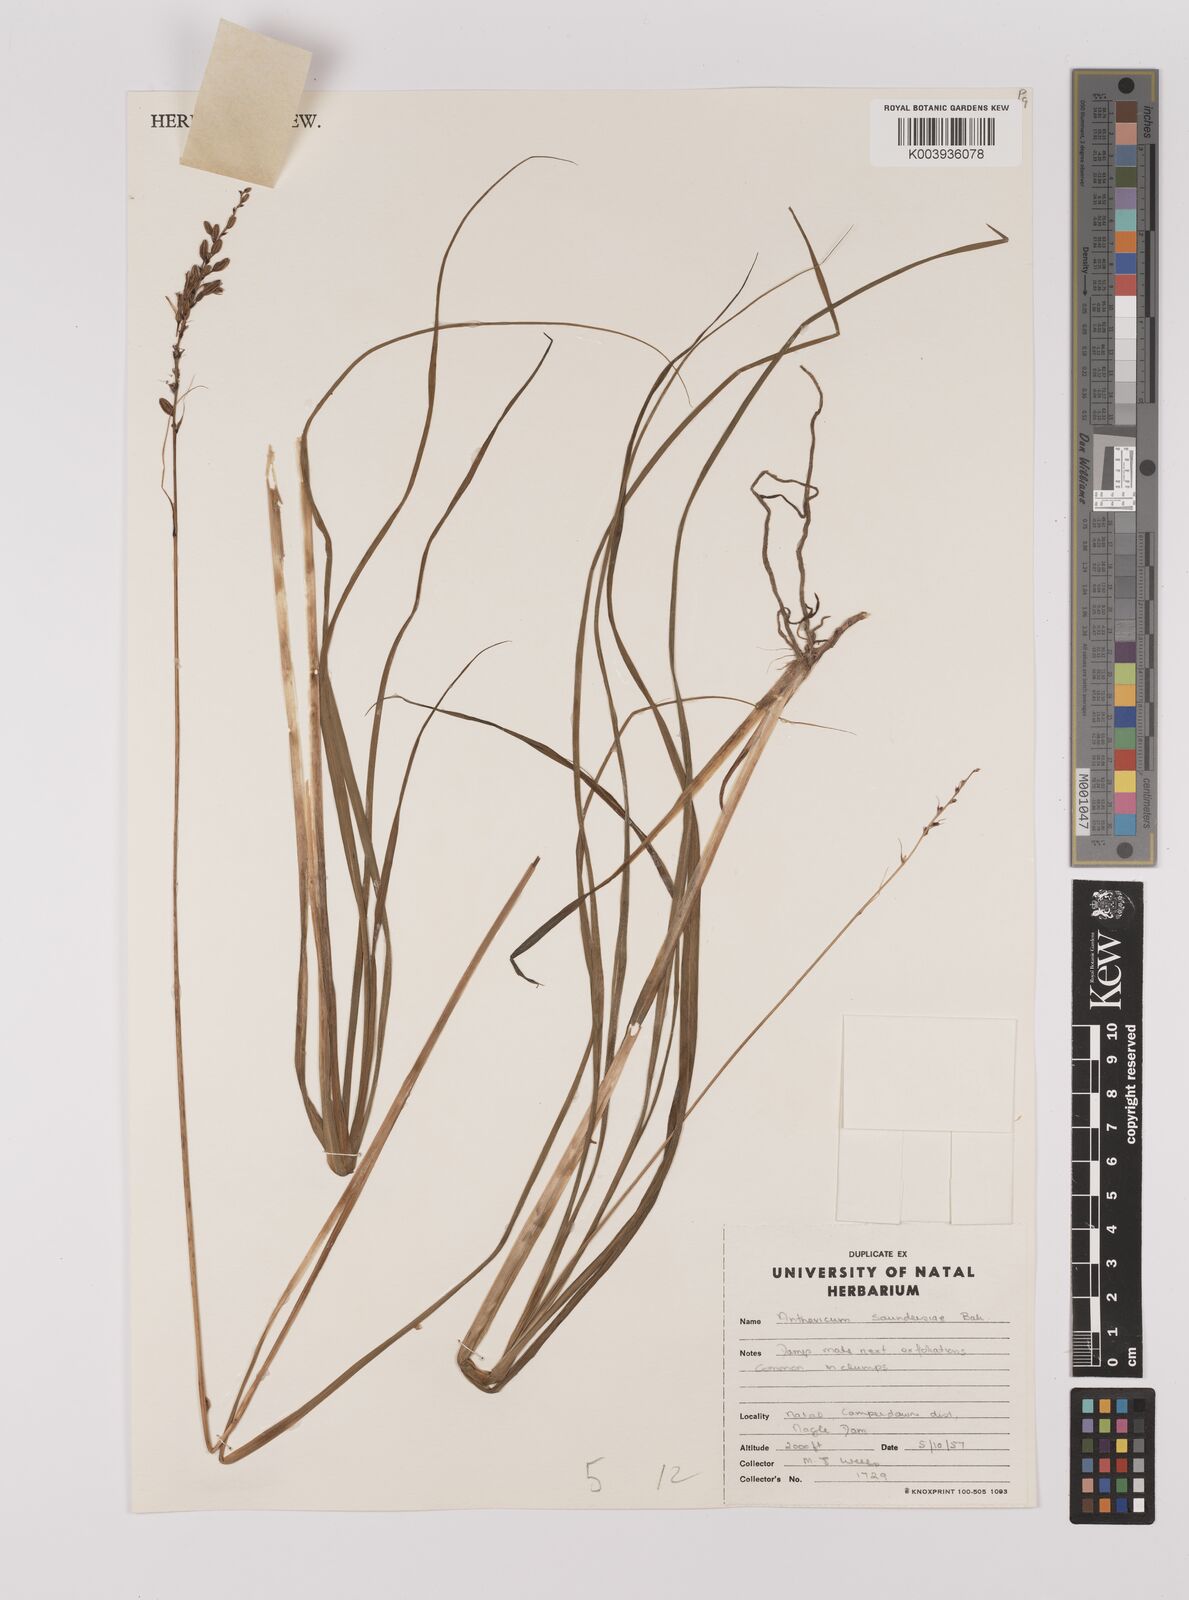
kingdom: Plantae
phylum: Tracheophyta
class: Liliopsida
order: Asparagales
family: Asparagaceae
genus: Chlorophytum
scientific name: Chlorophytum saundersiae
